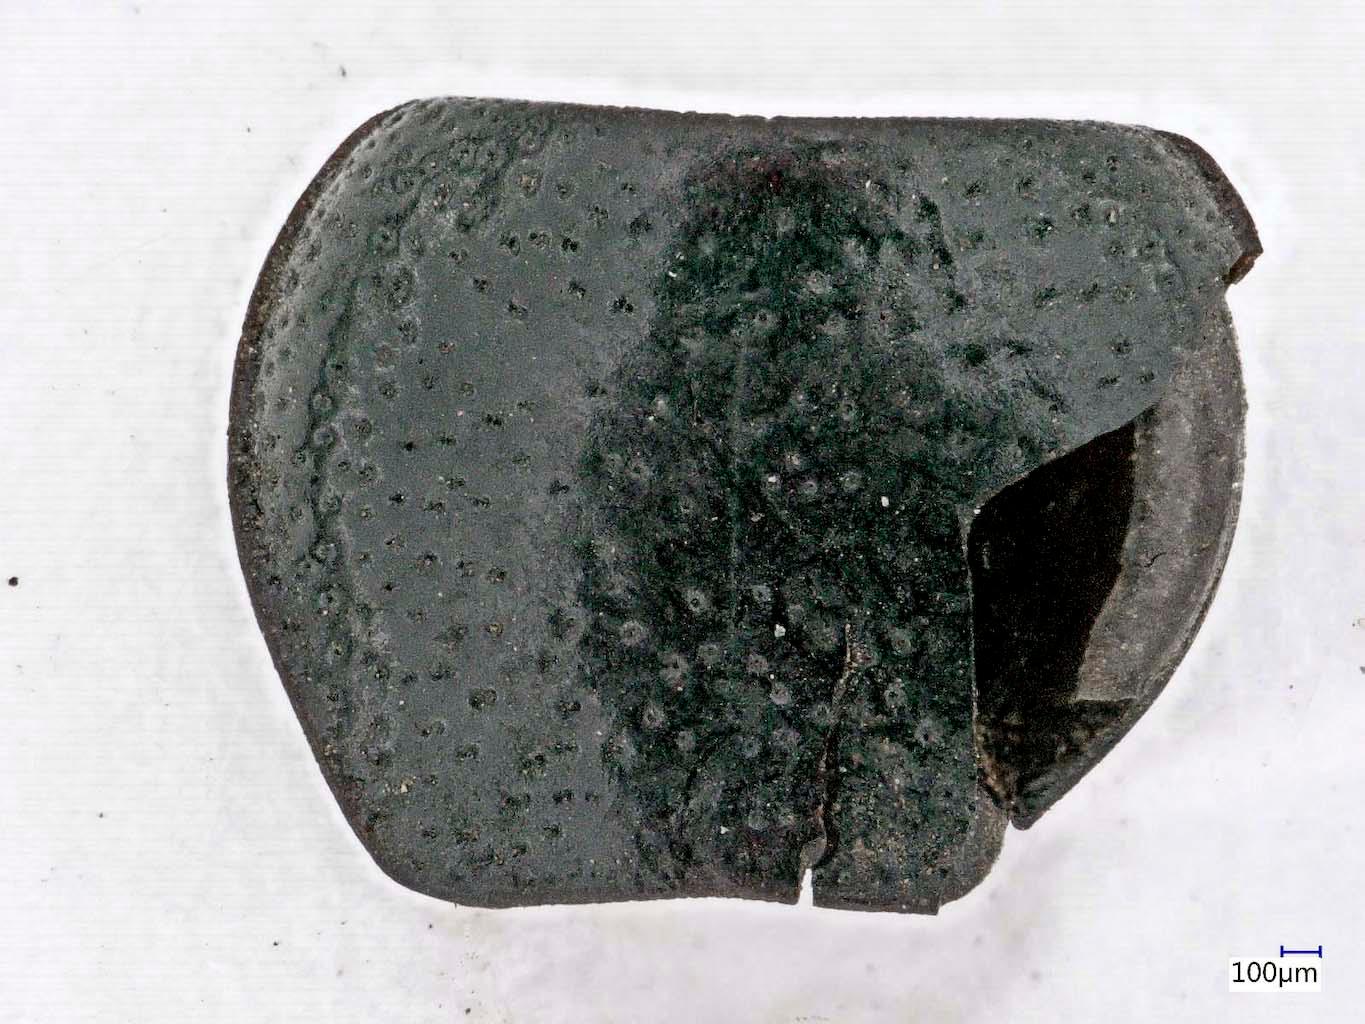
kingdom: Animalia
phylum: Arthropoda
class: Insecta
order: Coleoptera
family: Carabidae
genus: Dicheirus
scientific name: Dicheirus dilatatus
